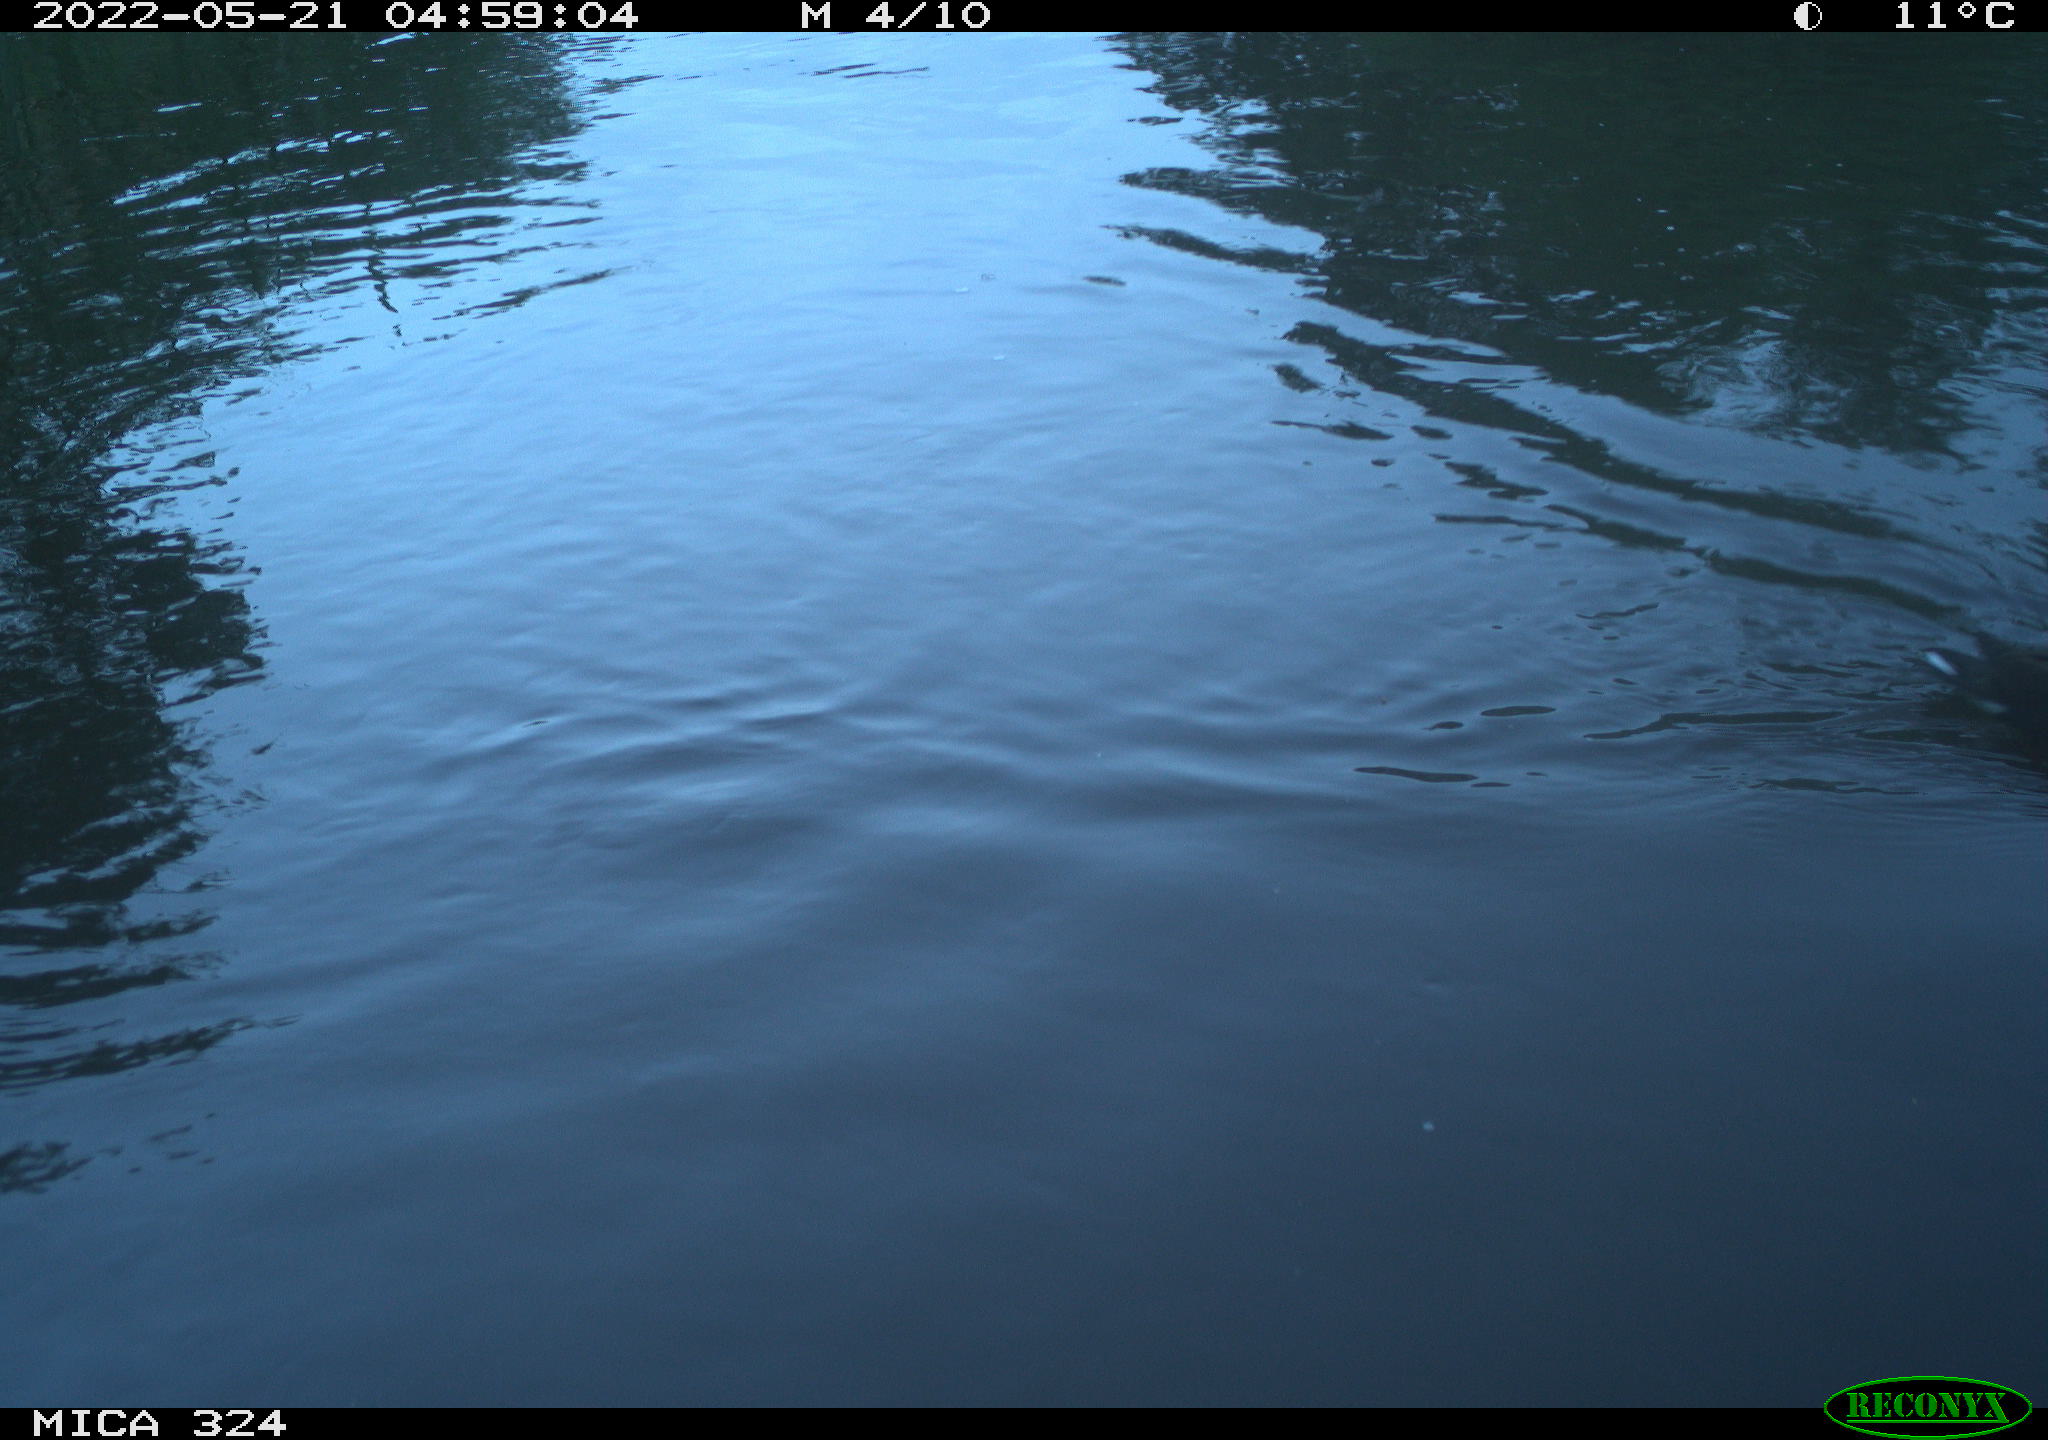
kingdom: Animalia
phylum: Chordata
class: Aves
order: Gruiformes
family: Rallidae
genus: Gallinula
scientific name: Gallinula chloropus
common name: Common moorhen
